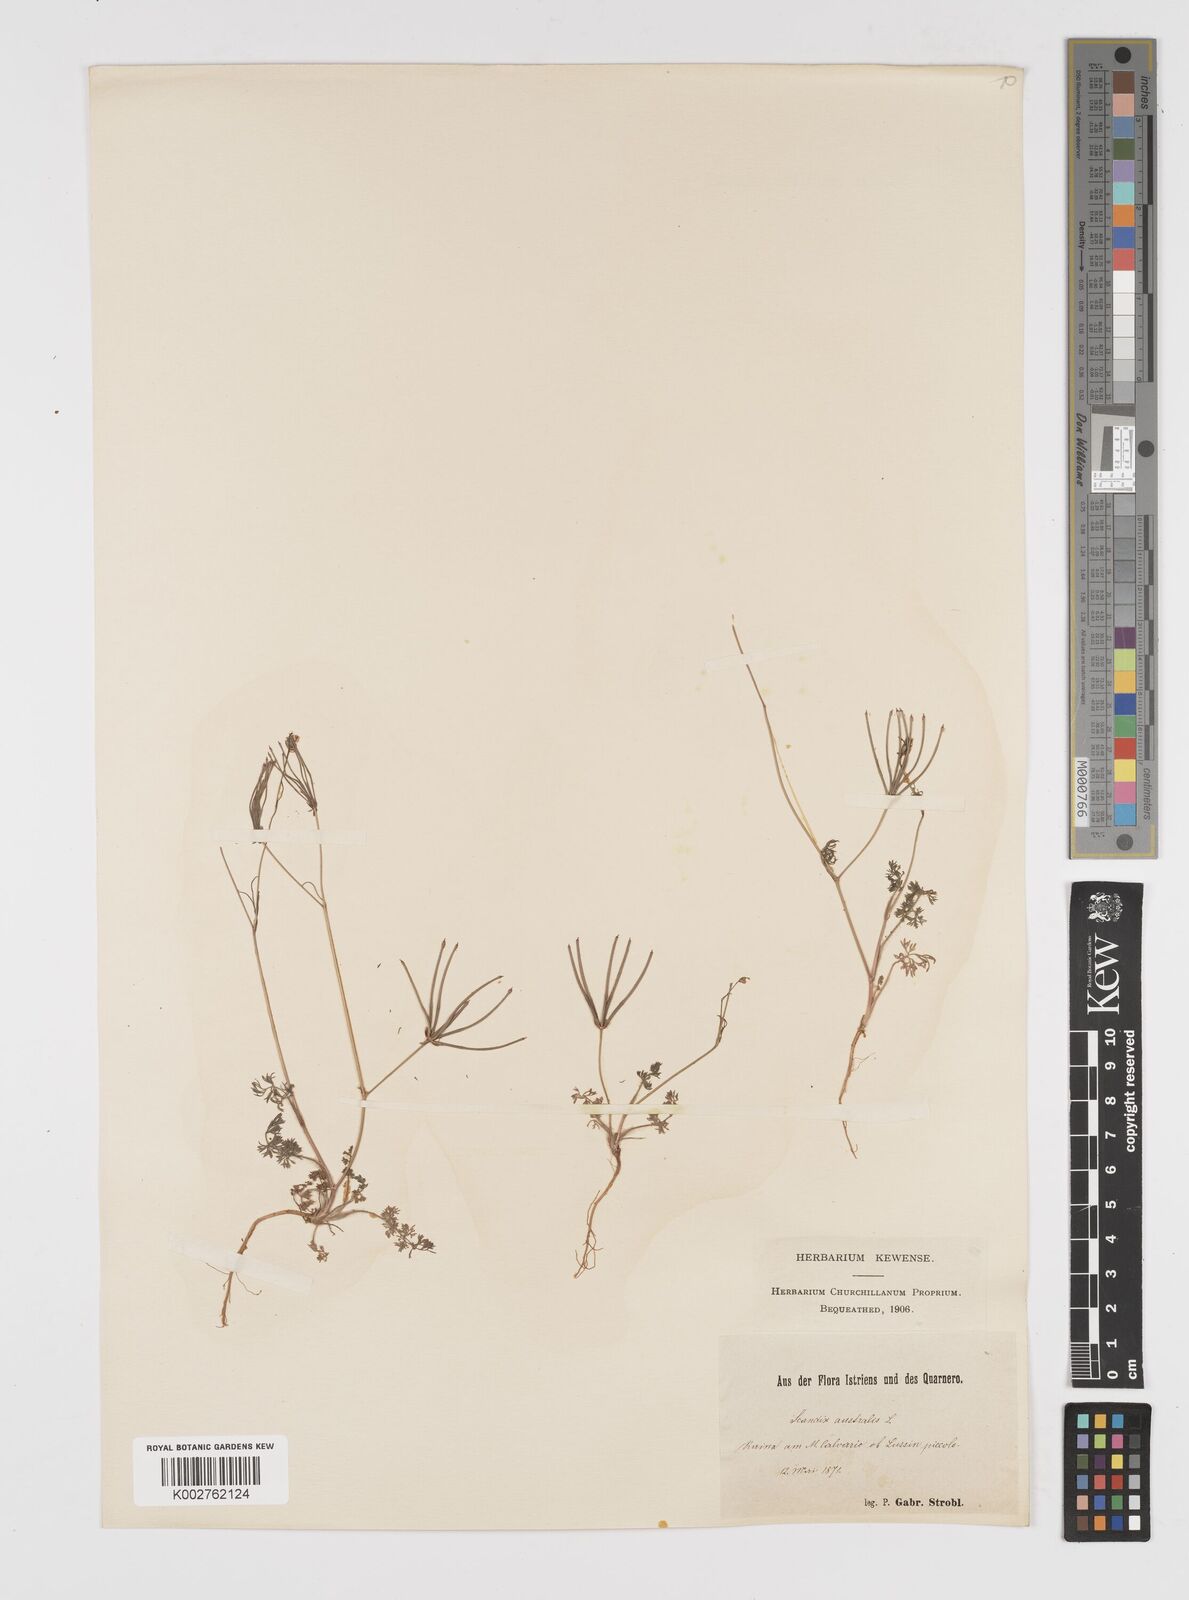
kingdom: Plantae
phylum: Tracheophyta
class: Magnoliopsida
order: Apiales
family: Apiaceae
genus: Scandix
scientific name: Scandix australis
